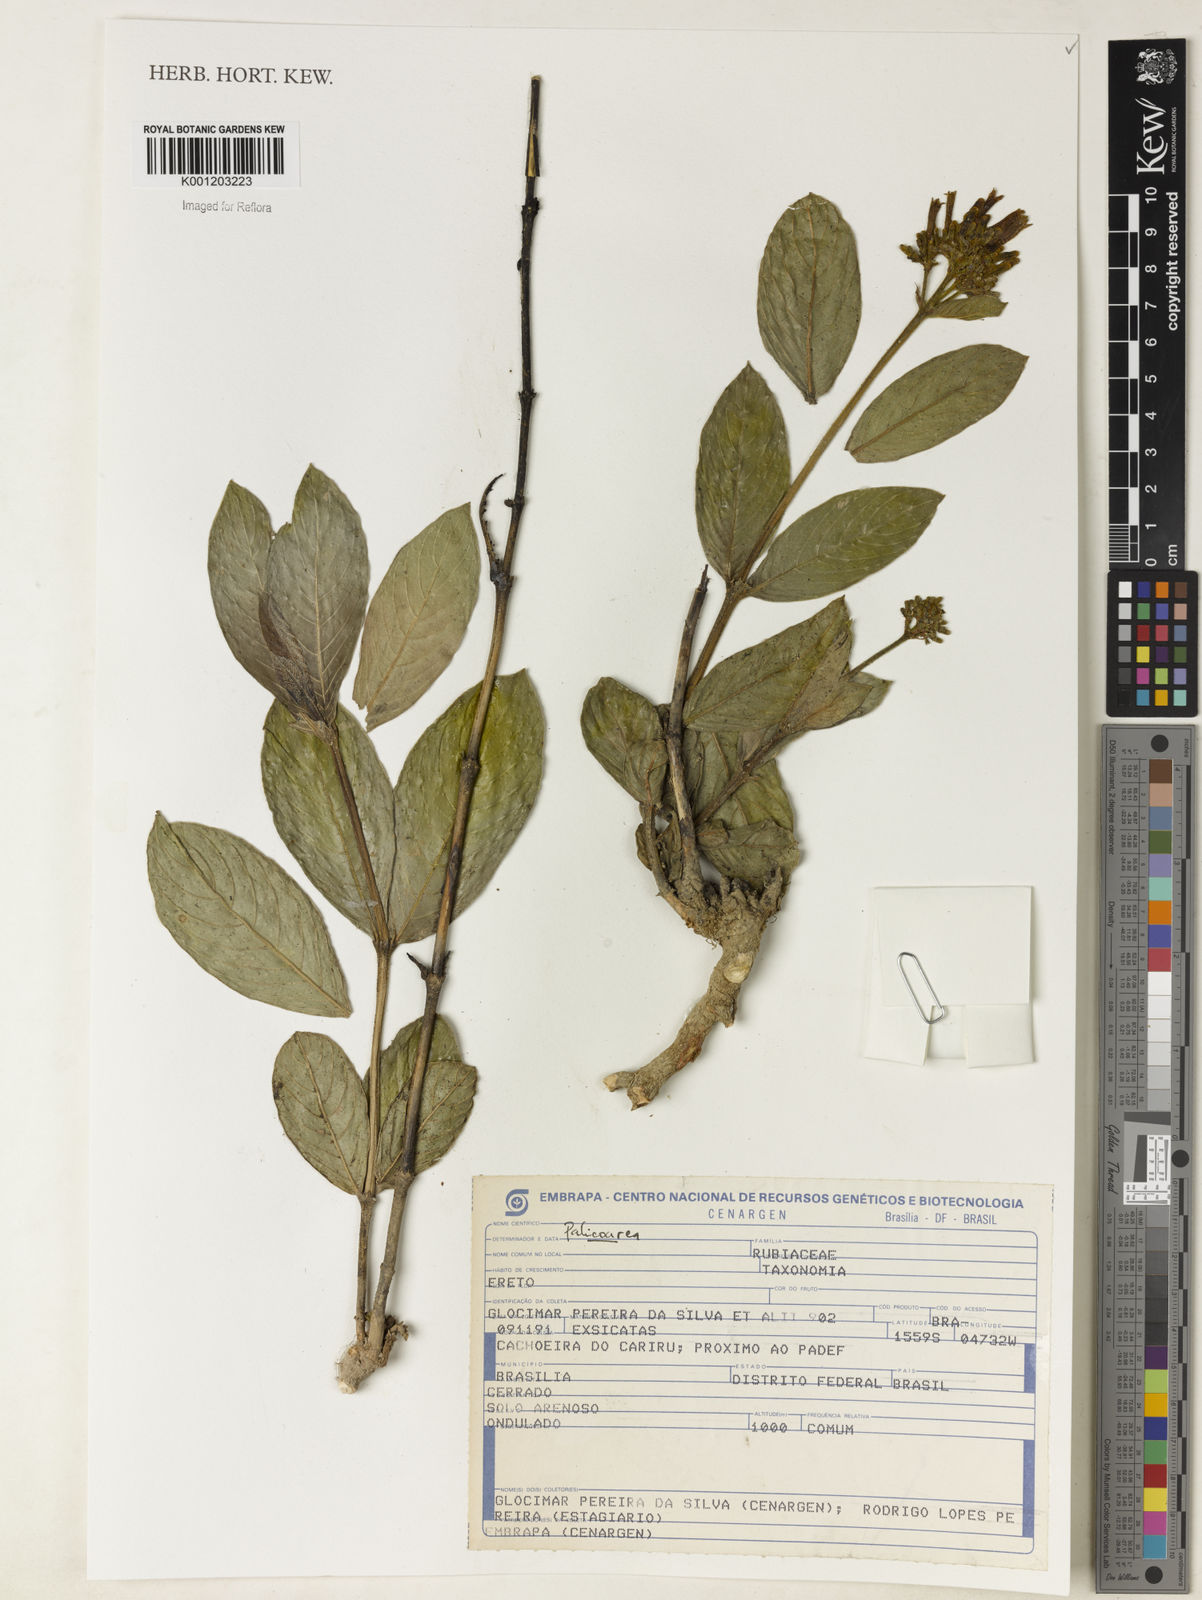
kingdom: Plantae
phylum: Tracheophyta
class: Magnoliopsida
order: Gentianales
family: Rubiaceae
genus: Palicourea
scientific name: Palicourea
